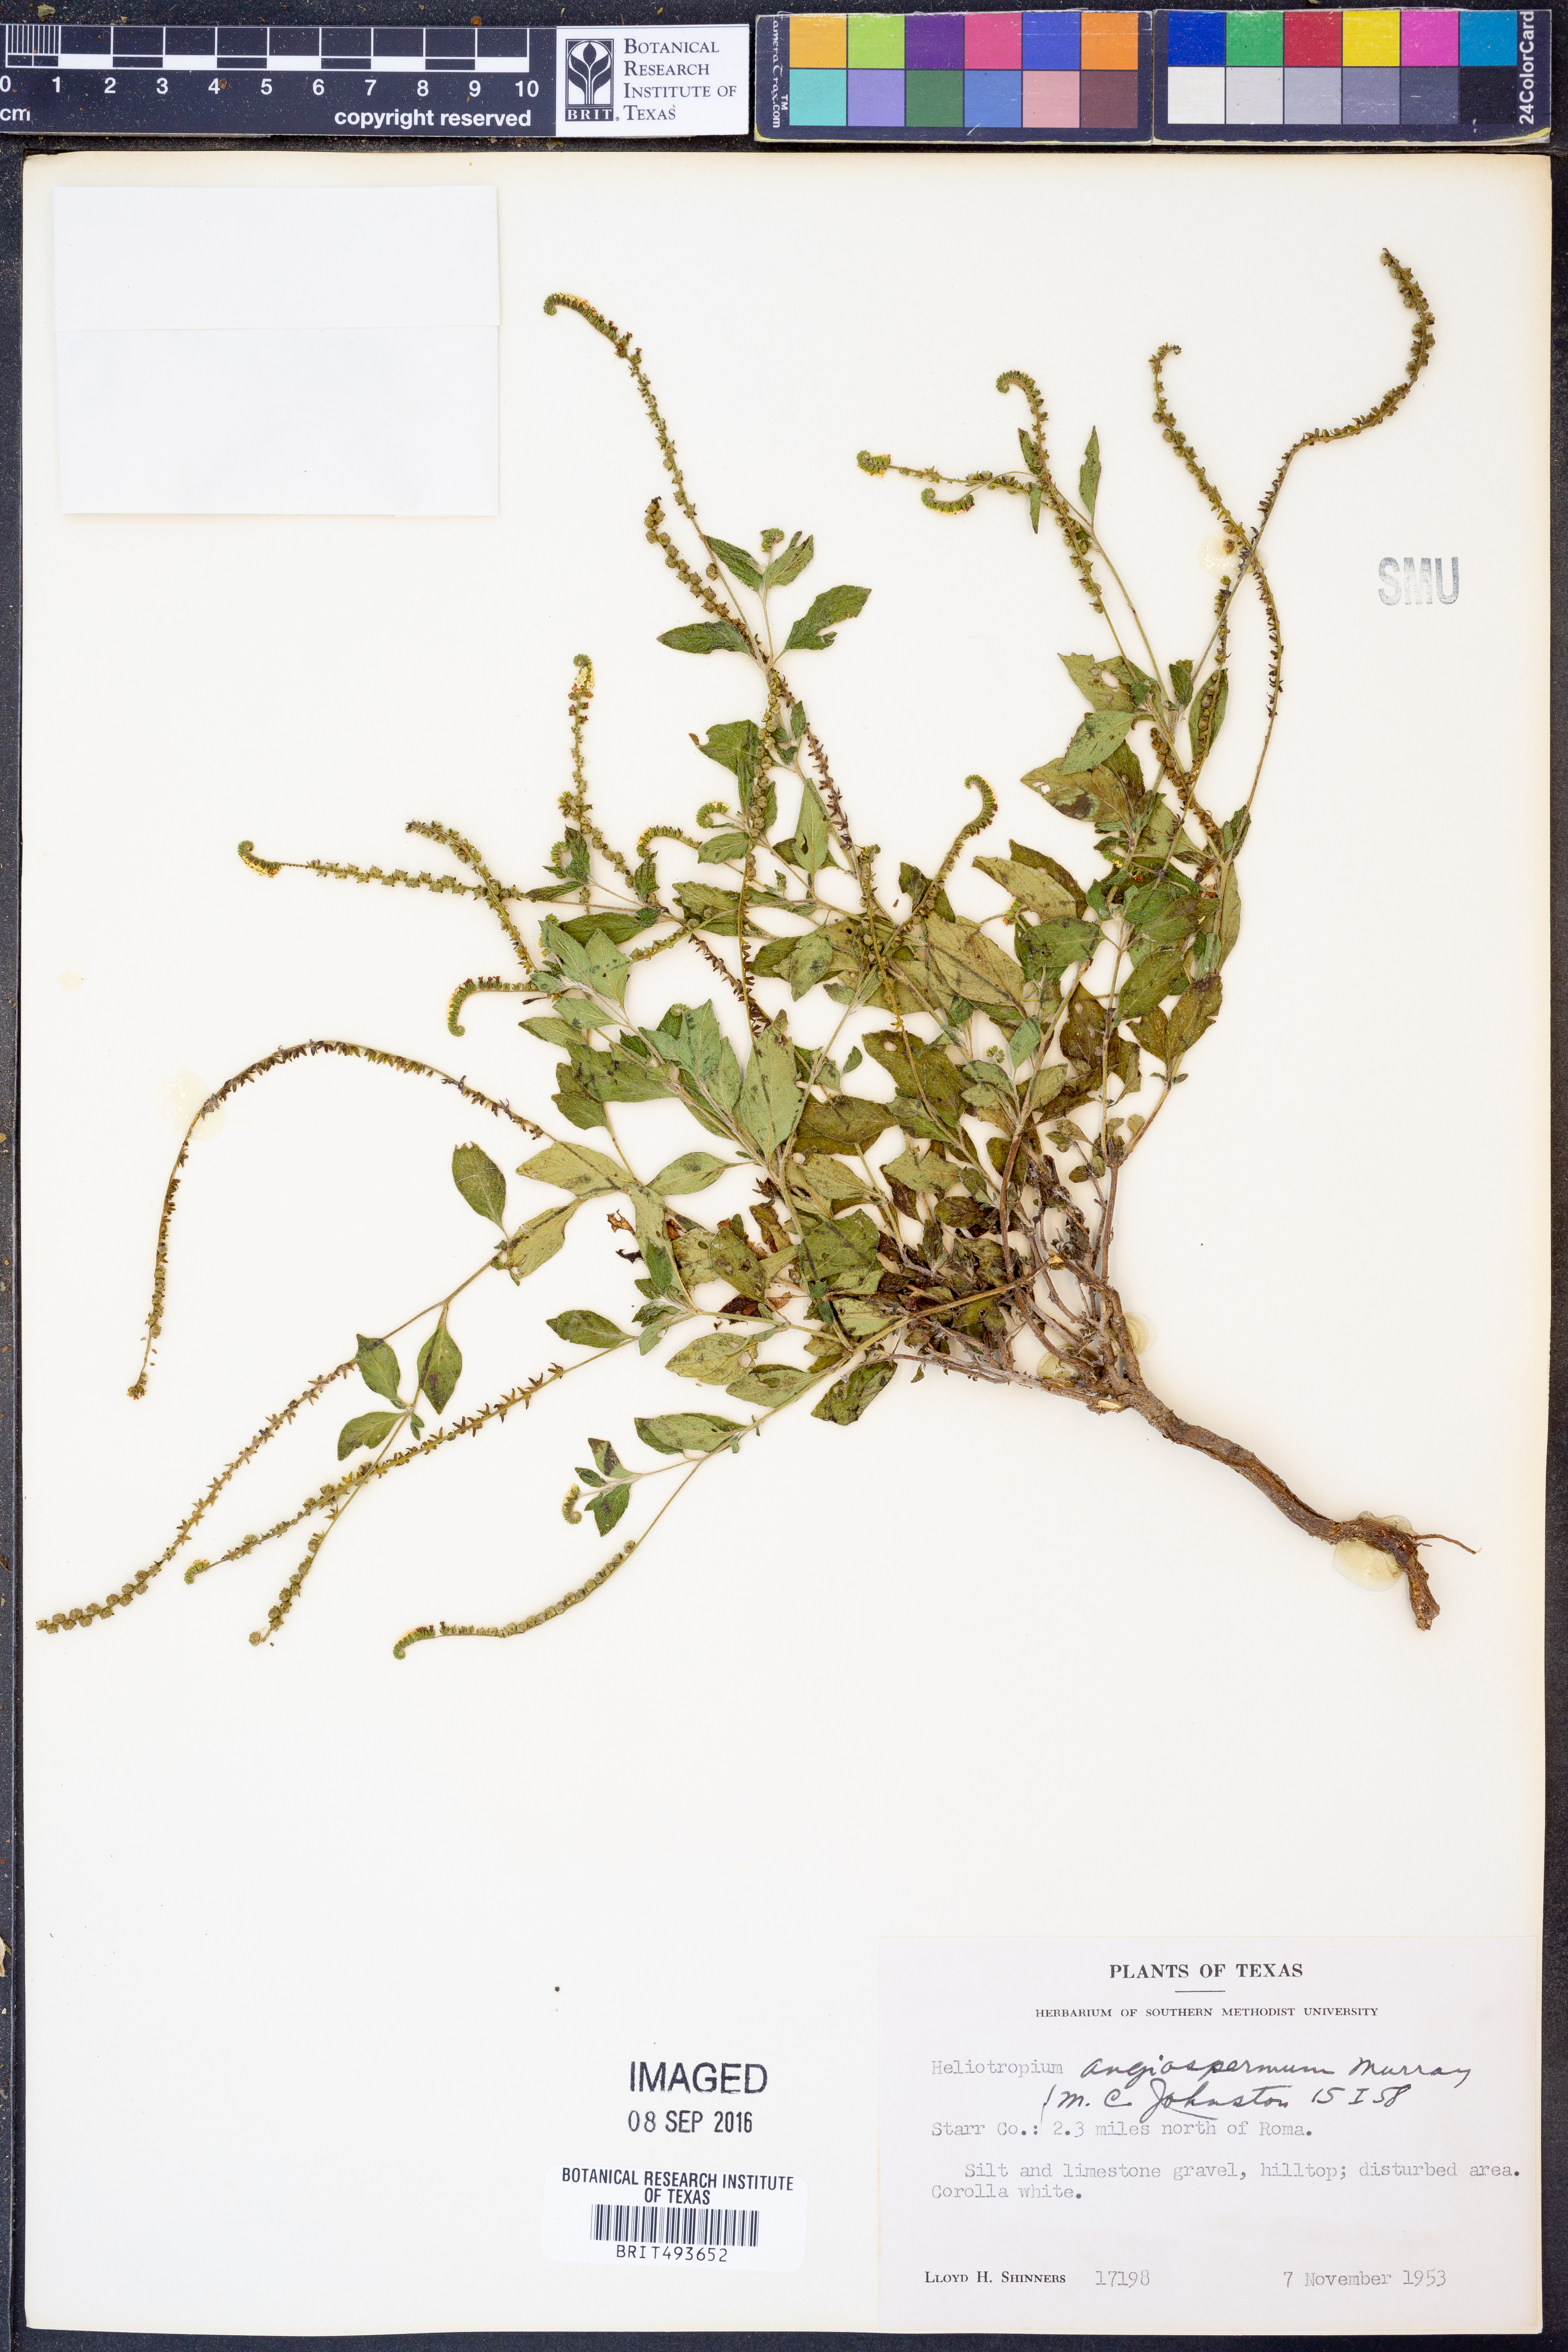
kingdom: Plantae
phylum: Tracheophyta
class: Magnoliopsida
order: Boraginales
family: Heliotropiaceae
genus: Heliotropium
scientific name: Heliotropium angiospermum
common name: Eye bright
